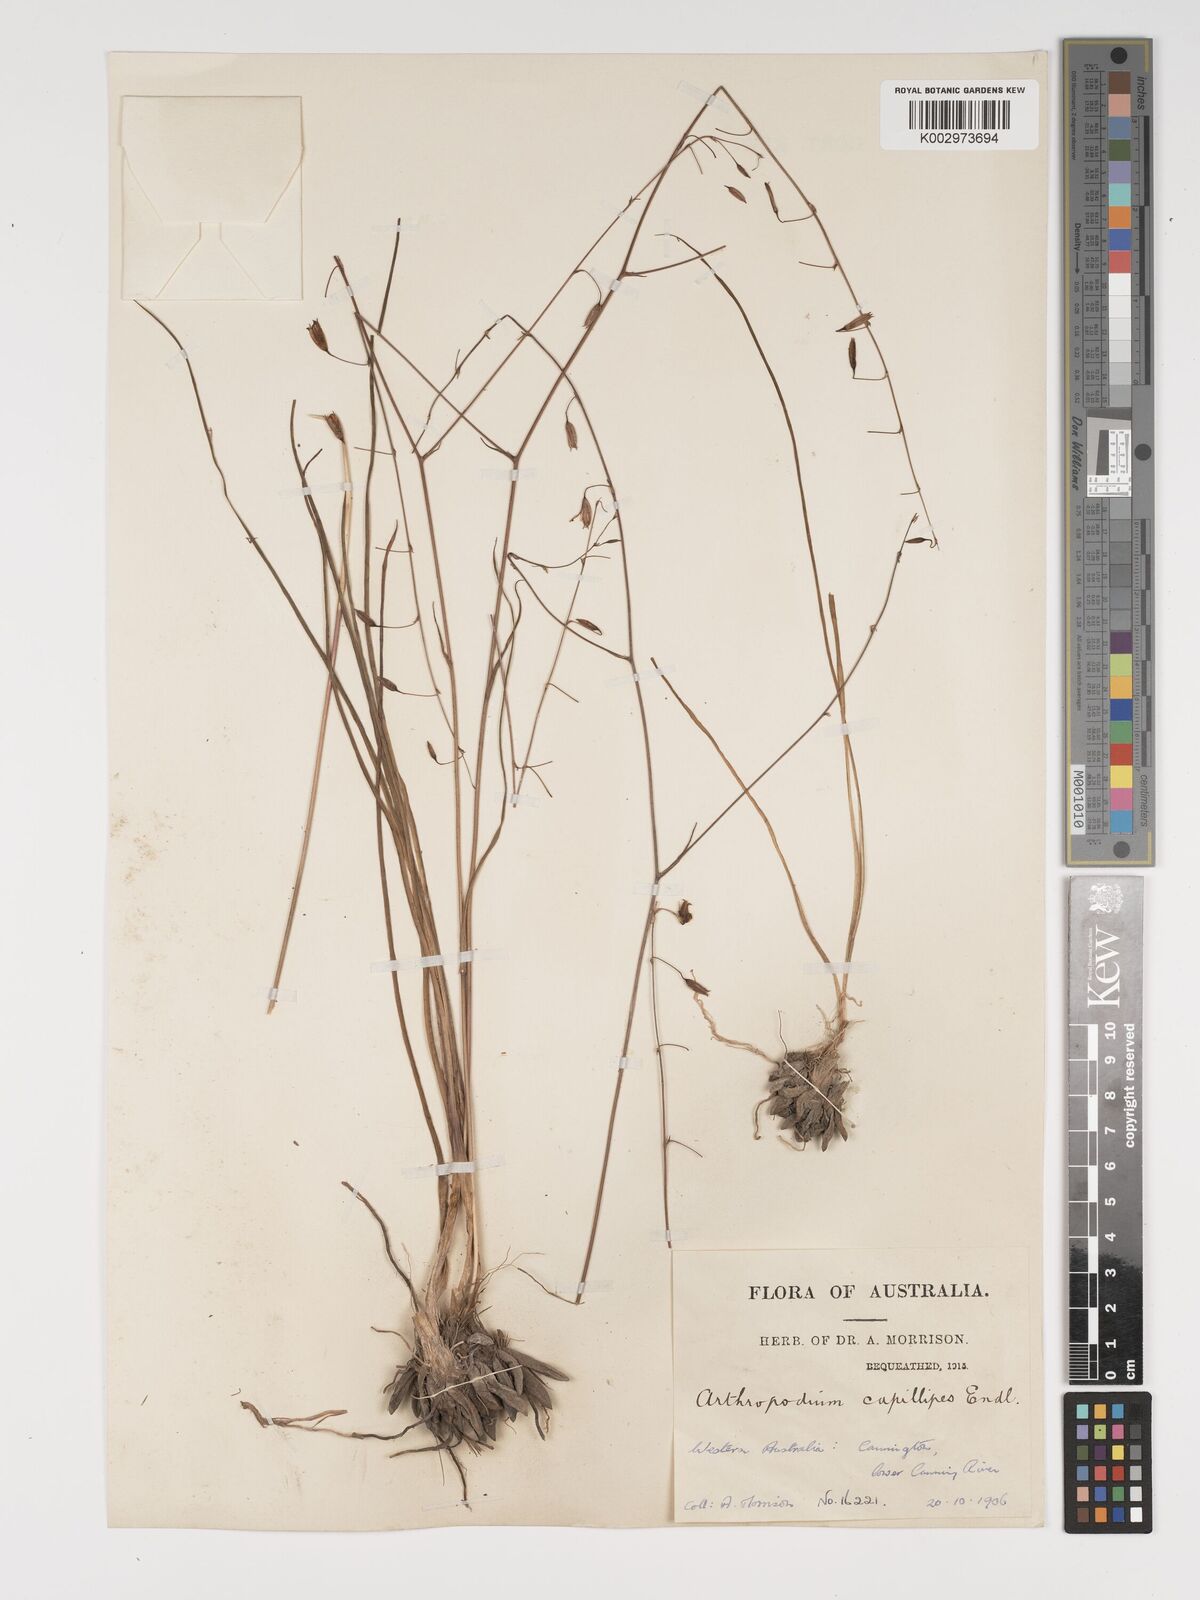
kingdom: Plantae
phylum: Tracheophyta
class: Liliopsida
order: Asparagales
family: Asparagaceae
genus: Dichopogon
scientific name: Dichopogon preissii
